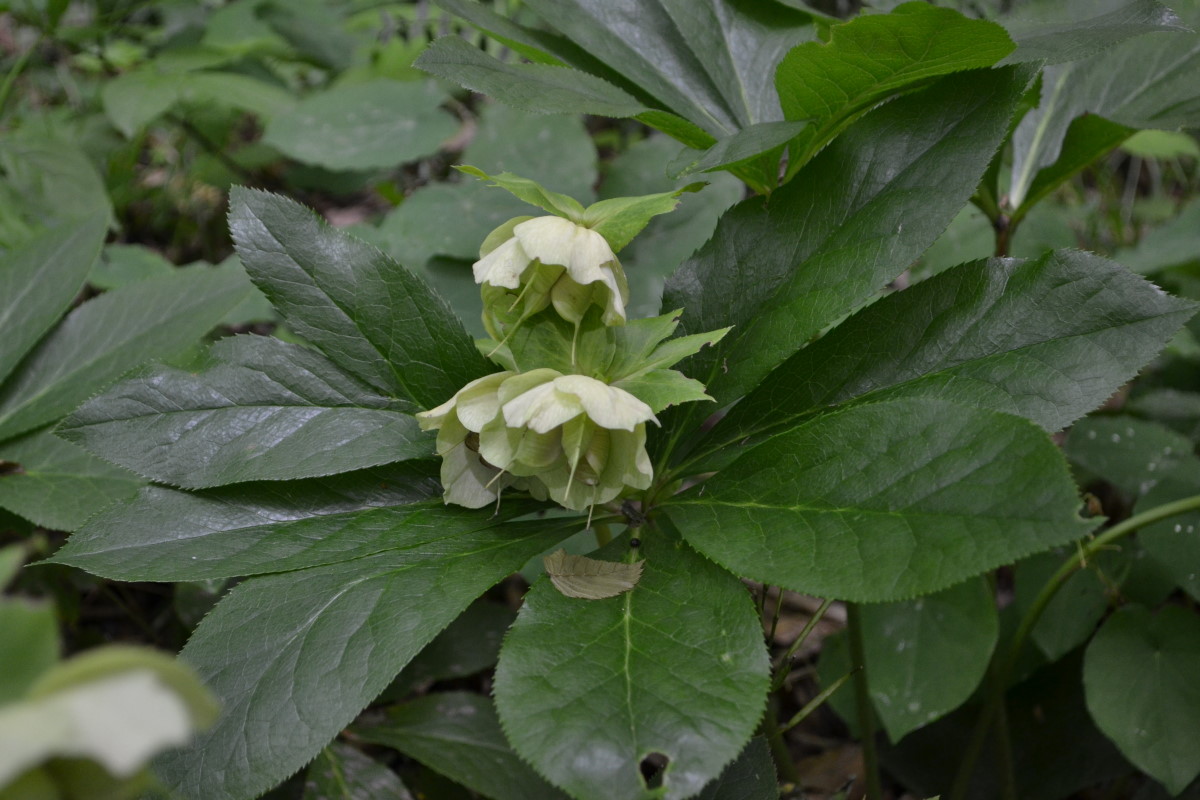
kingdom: Plantae
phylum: Tracheophyta
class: Magnoliopsida
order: Ranunculales
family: Ranunculaceae
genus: Helleborus
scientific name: Helleborus orientalis
